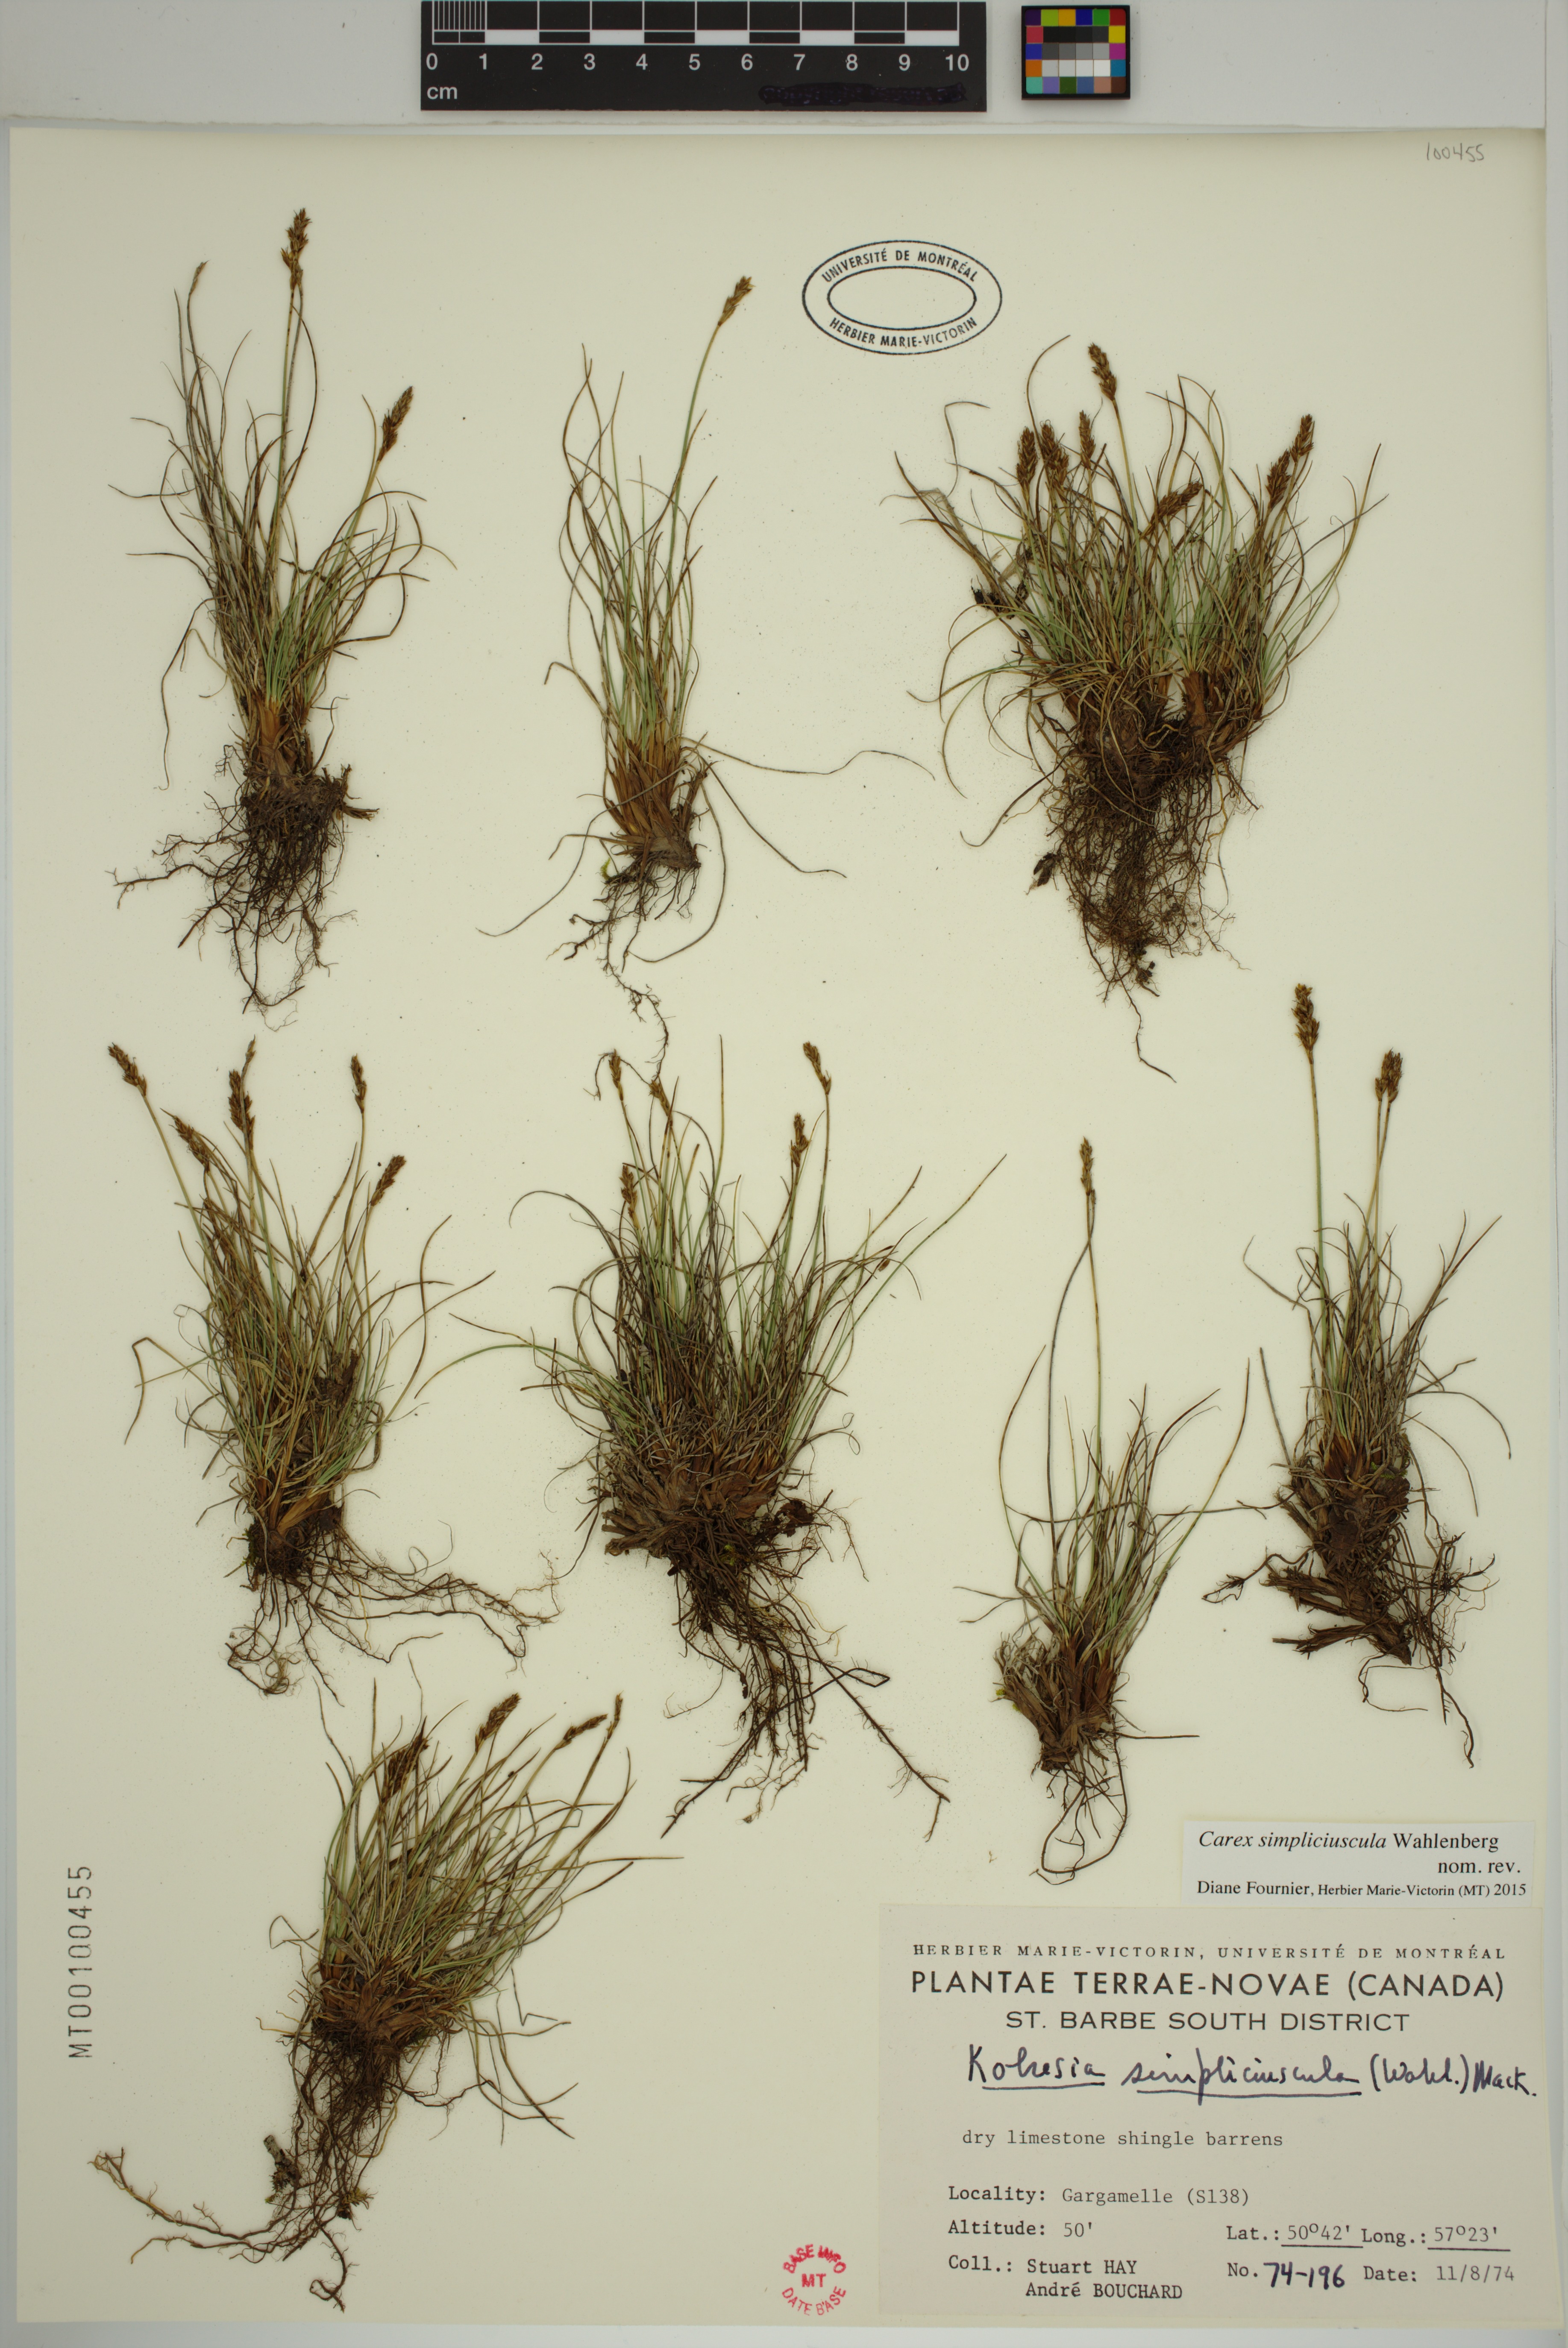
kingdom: Plantae
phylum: Tracheophyta
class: Liliopsida
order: Poales
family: Cyperaceae
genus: Carex
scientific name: Carex simpliciuscula
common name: Simple bog sedge
